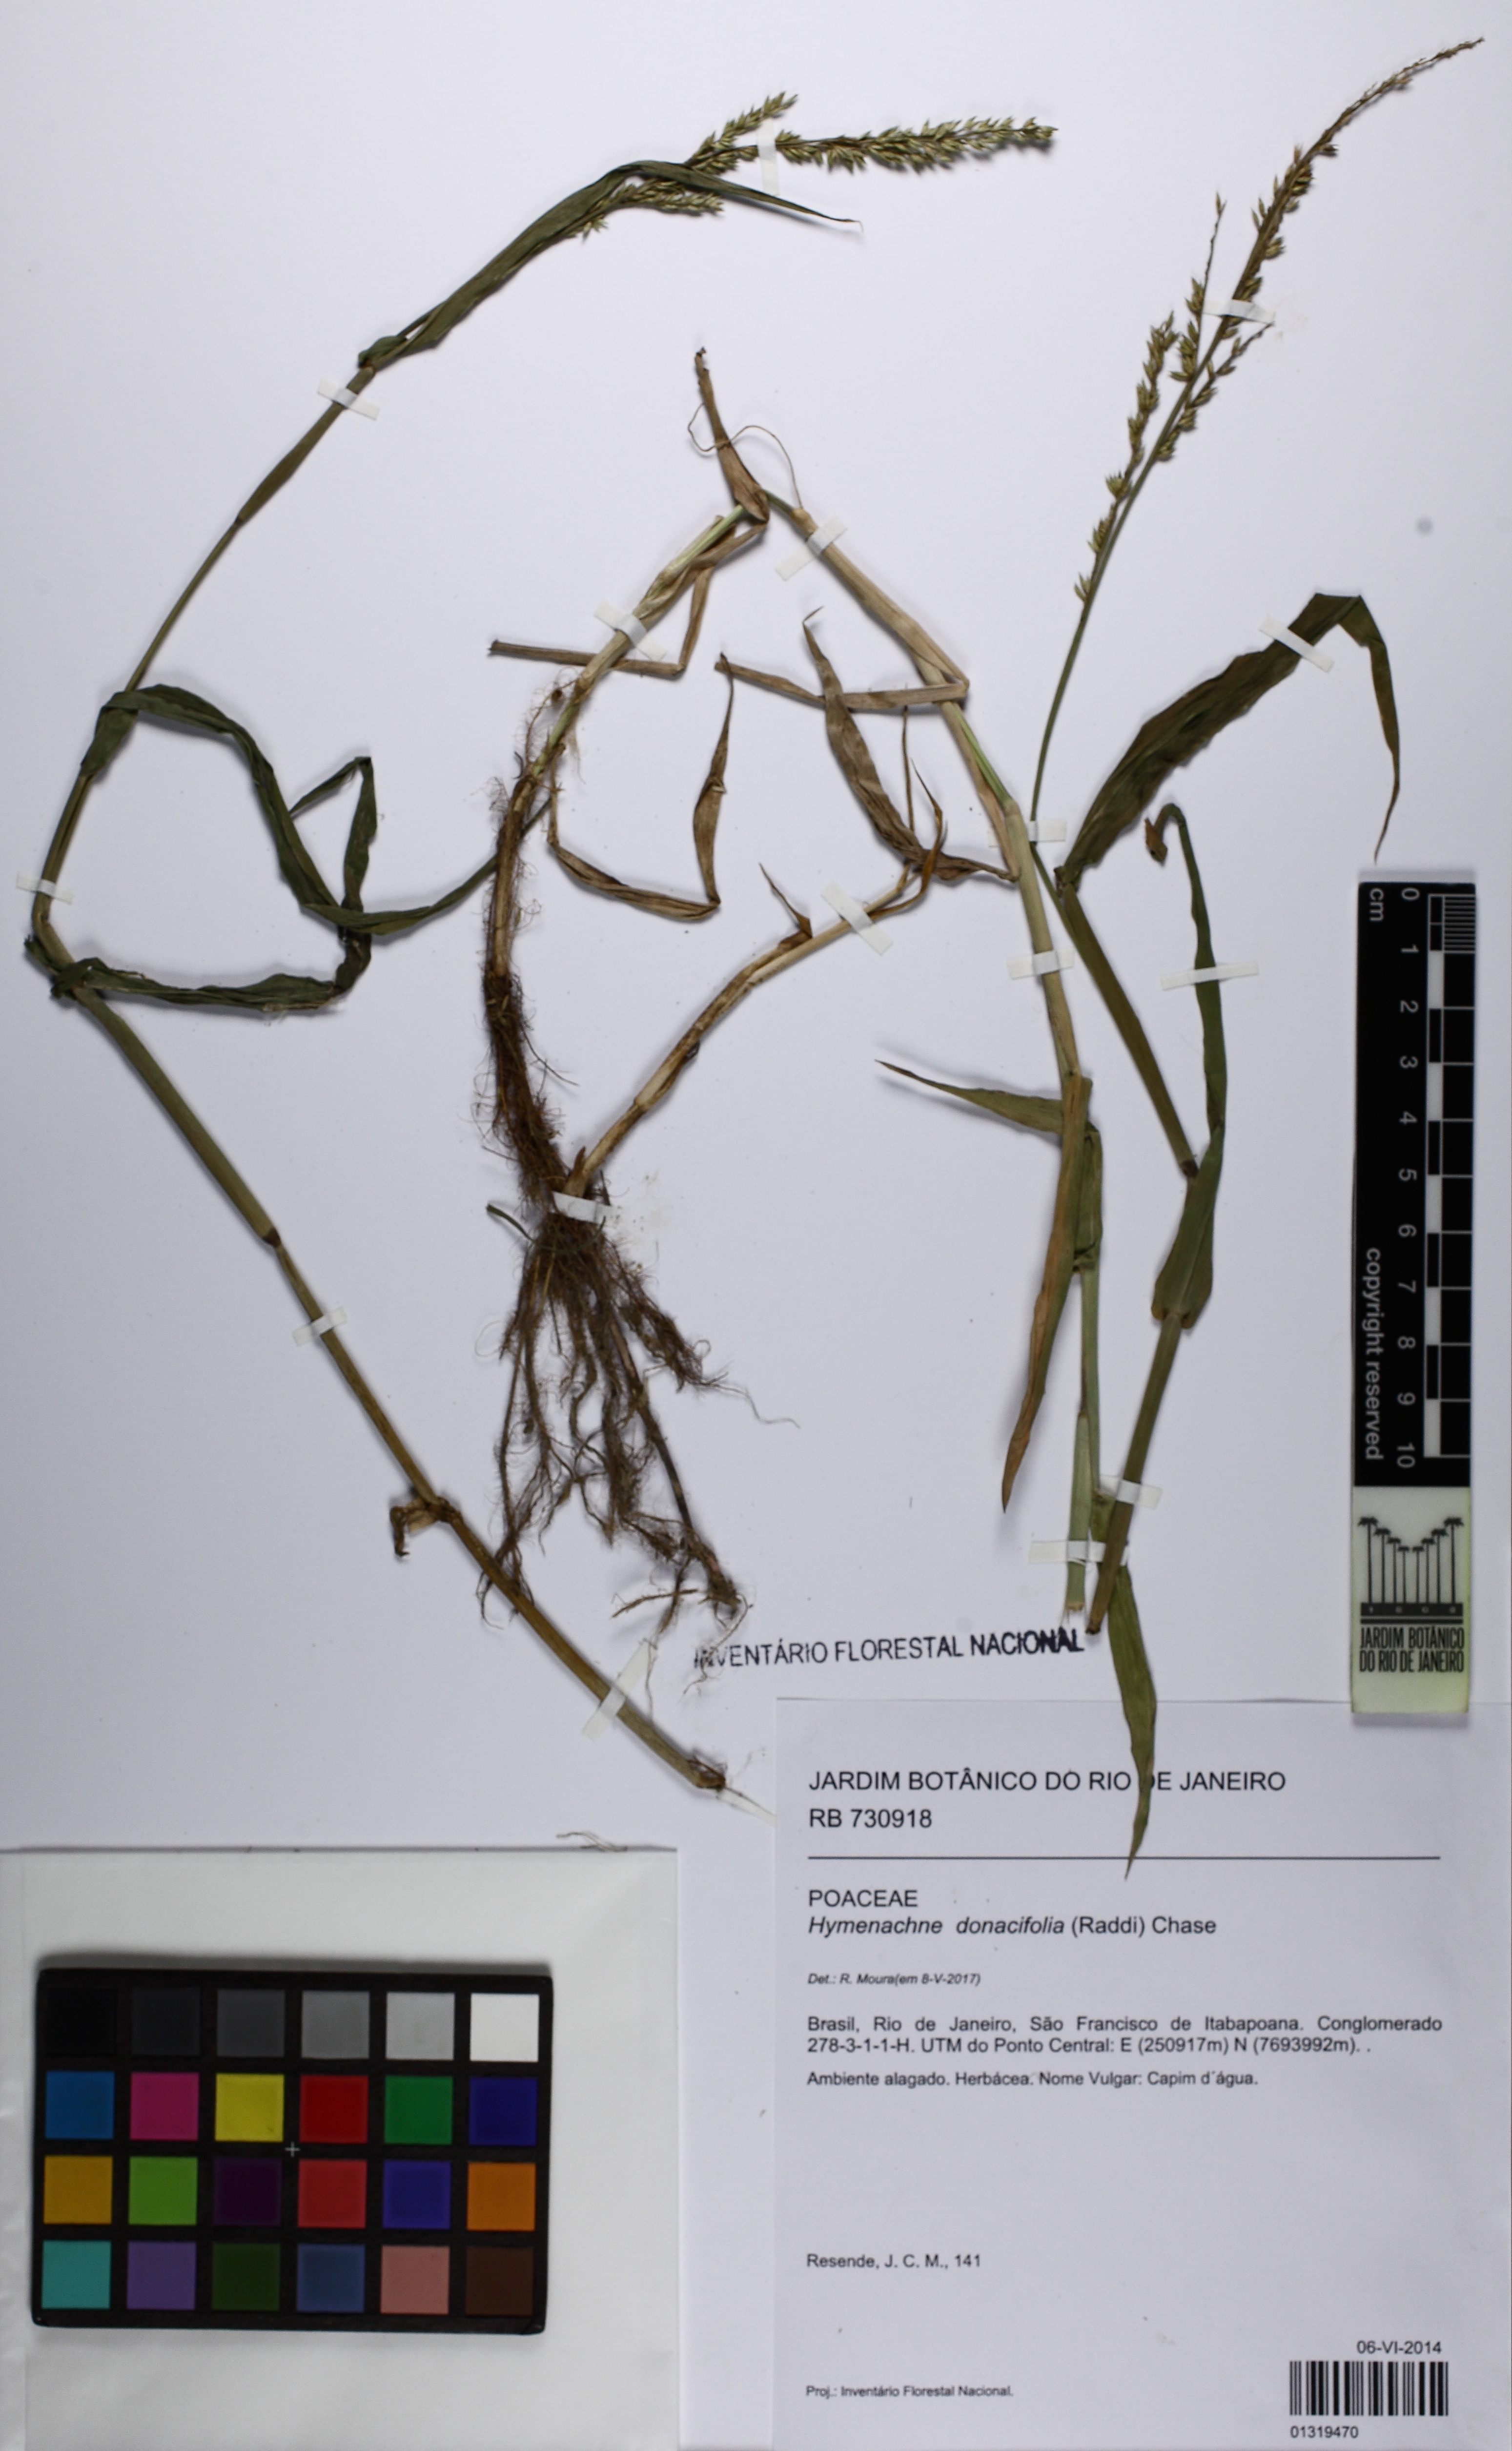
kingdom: Plantae
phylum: Tracheophyta
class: Liliopsida
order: Poales
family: Poaceae
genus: Hymenachne
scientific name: Hymenachne donacifolia
